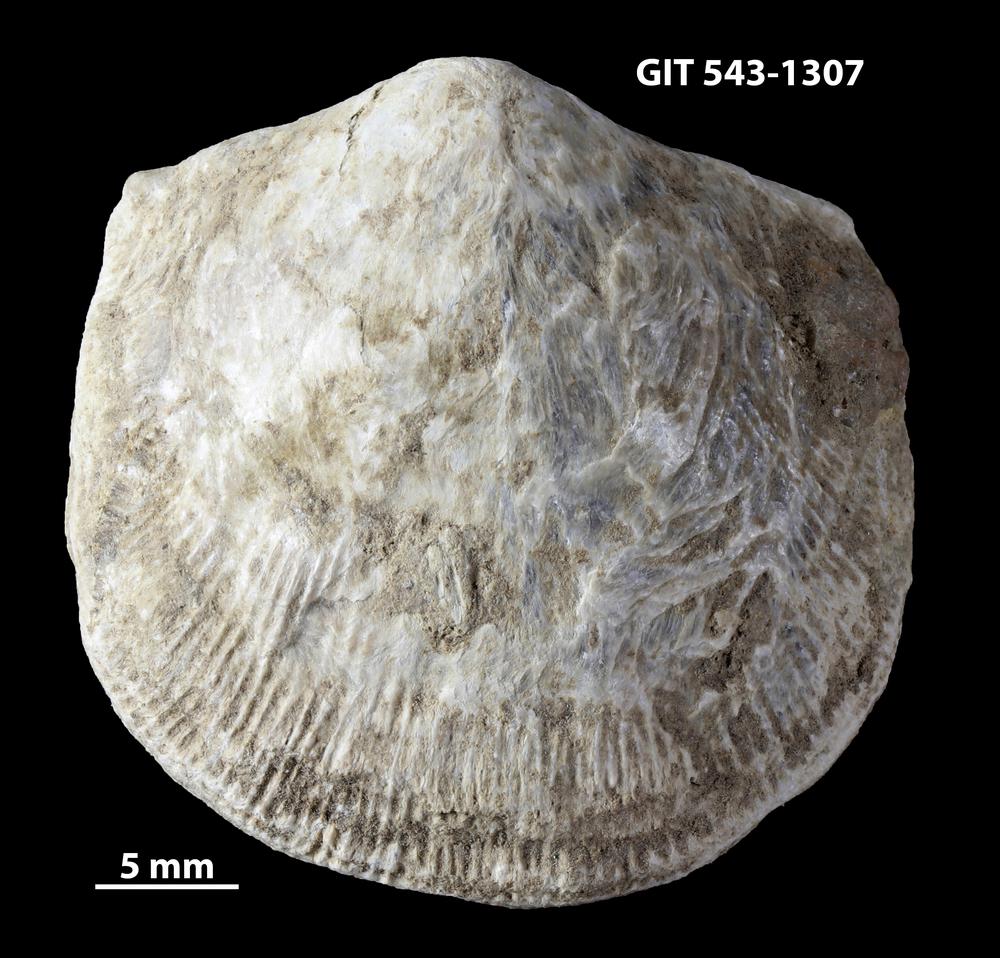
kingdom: Animalia
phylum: Brachiopoda
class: Rhynchonellata
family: Clitambonitidae
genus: Clitambonites
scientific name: Clitambonites
